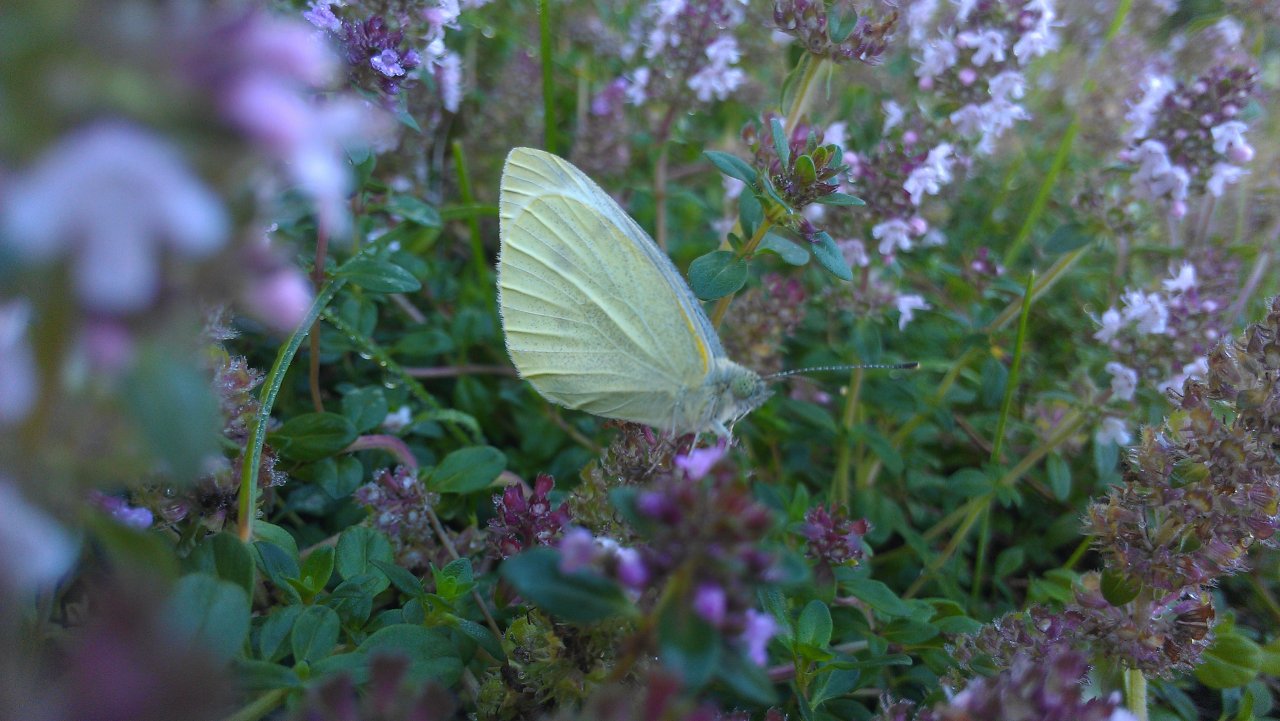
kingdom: Animalia
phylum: Arthropoda
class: Insecta
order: Lepidoptera
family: Pieridae
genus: Pieris
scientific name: Pieris rapae
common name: Cabbage White
